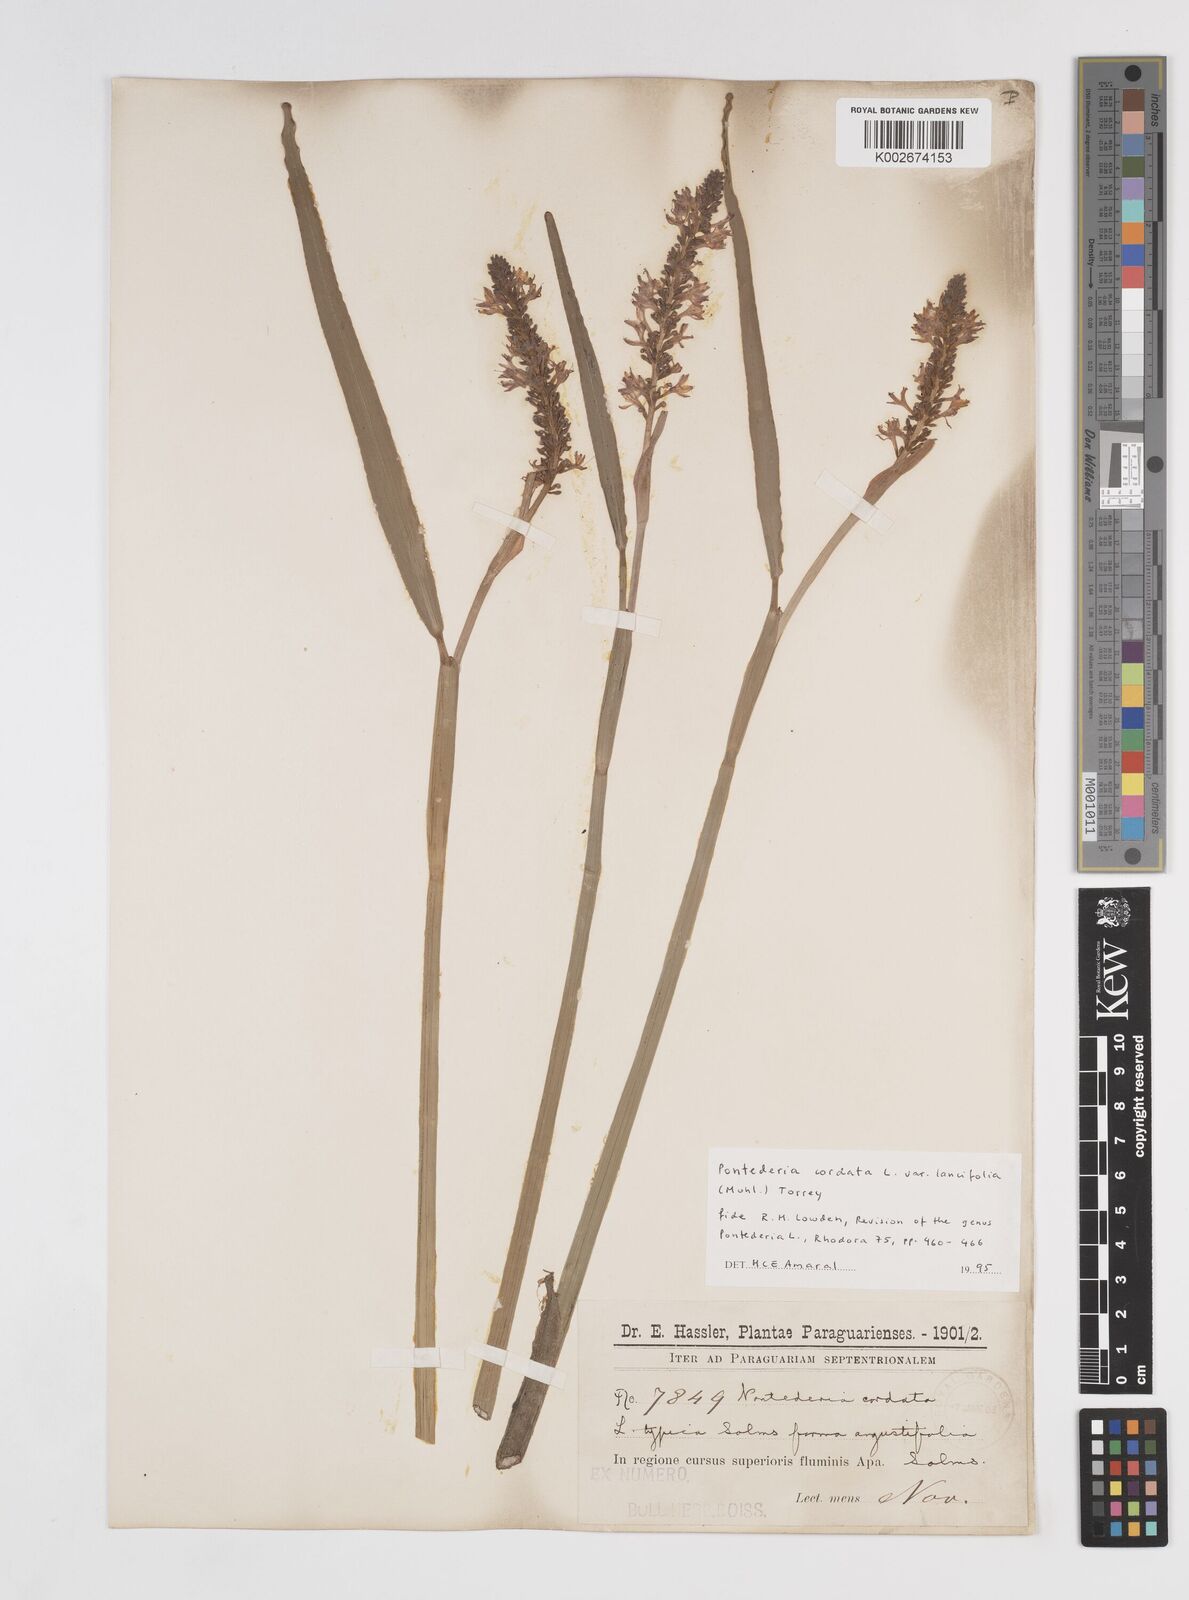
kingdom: Plantae
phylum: Tracheophyta
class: Liliopsida
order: Commelinales
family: Pontederiaceae
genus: Pontederia
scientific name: Pontederia
